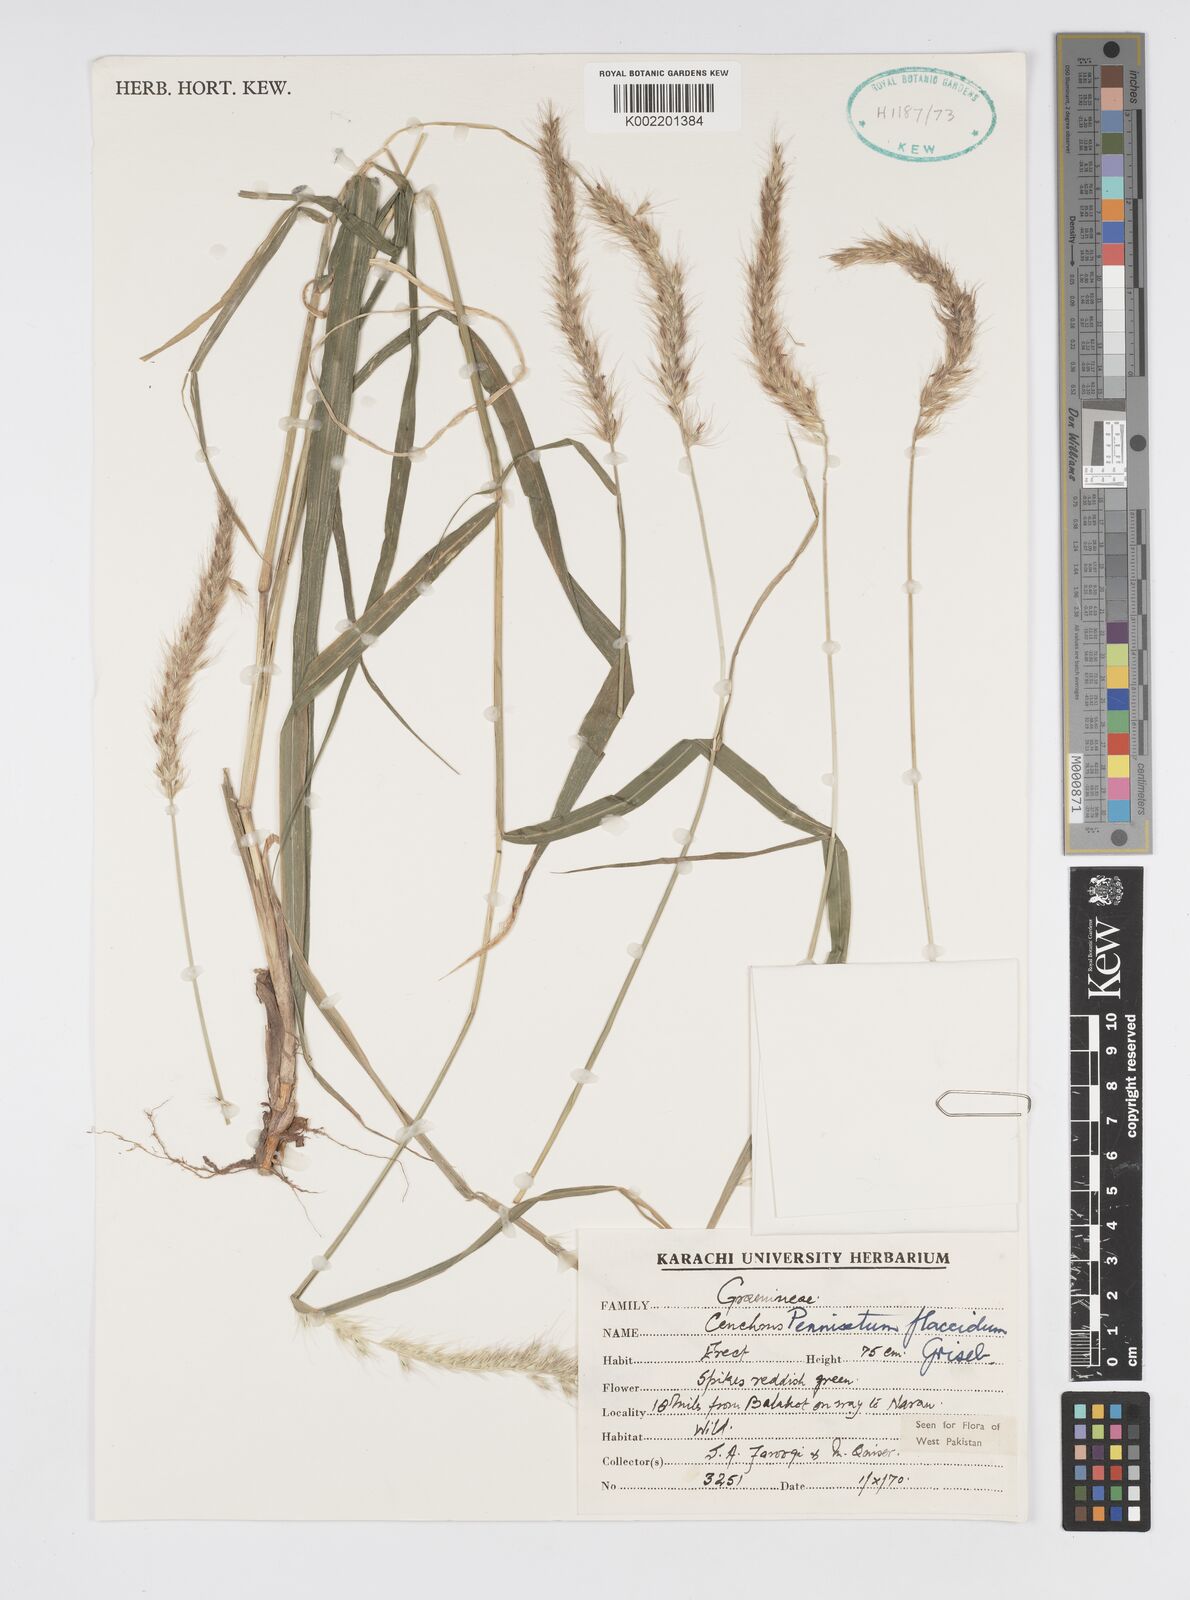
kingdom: Plantae
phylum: Tracheophyta
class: Liliopsida
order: Poales
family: Poaceae
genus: Cenchrus
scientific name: Cenchrus flaccidus
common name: Flaccid grass
